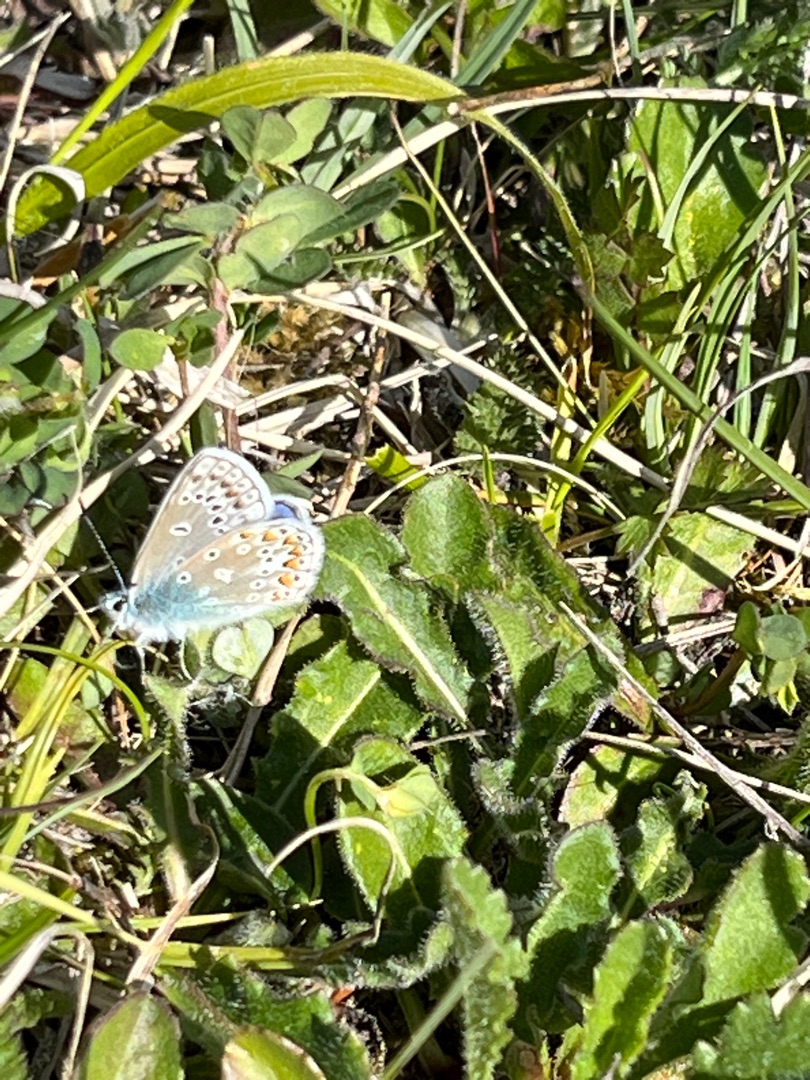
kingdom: Animalia
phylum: Arthropoda
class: Insecta
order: Lepidoptera
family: Lycaenidae
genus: Polyommatus
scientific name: Polyommatus icarus
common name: Almindelig blåfugl
